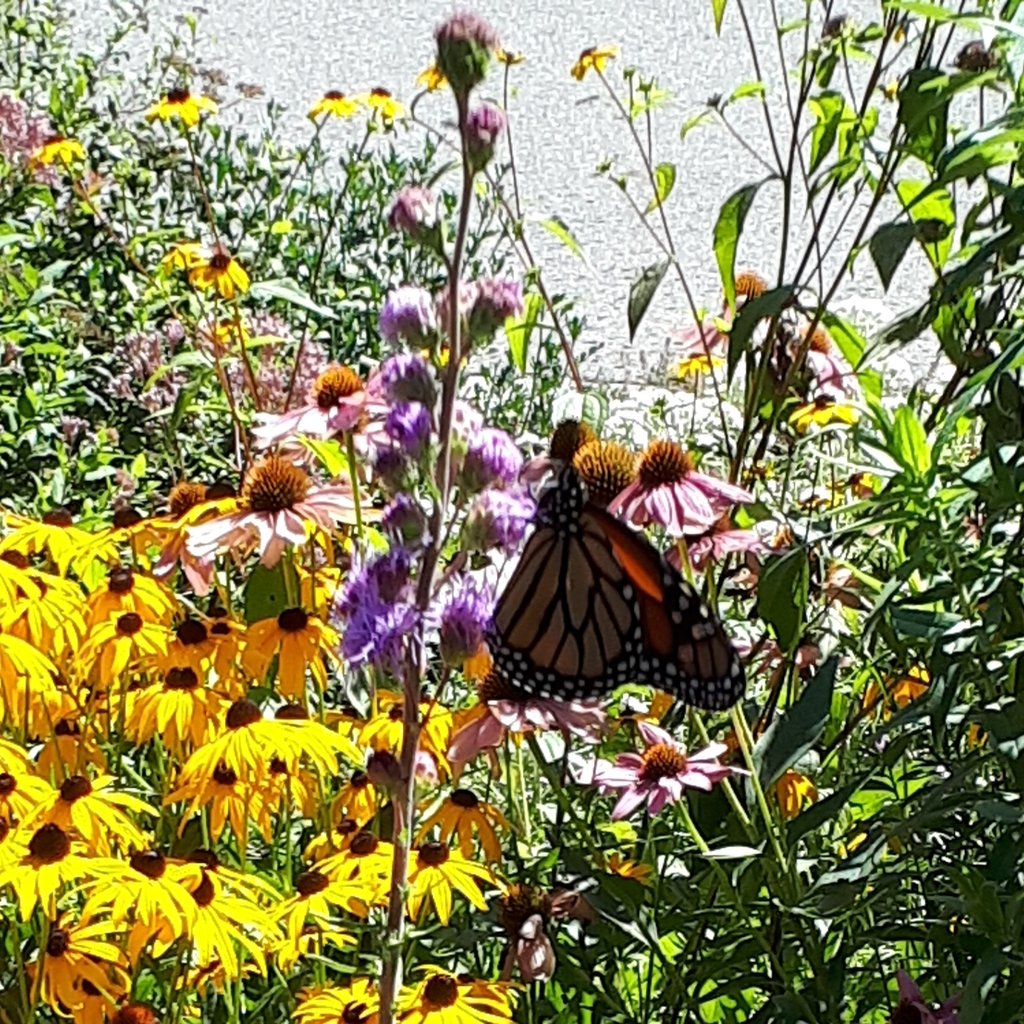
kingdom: Animalia
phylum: Arthropoda
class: Insecta
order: Lepidoptera
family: Nymphalidae
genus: Danaus
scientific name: Danaus plexippus
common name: Monarch
